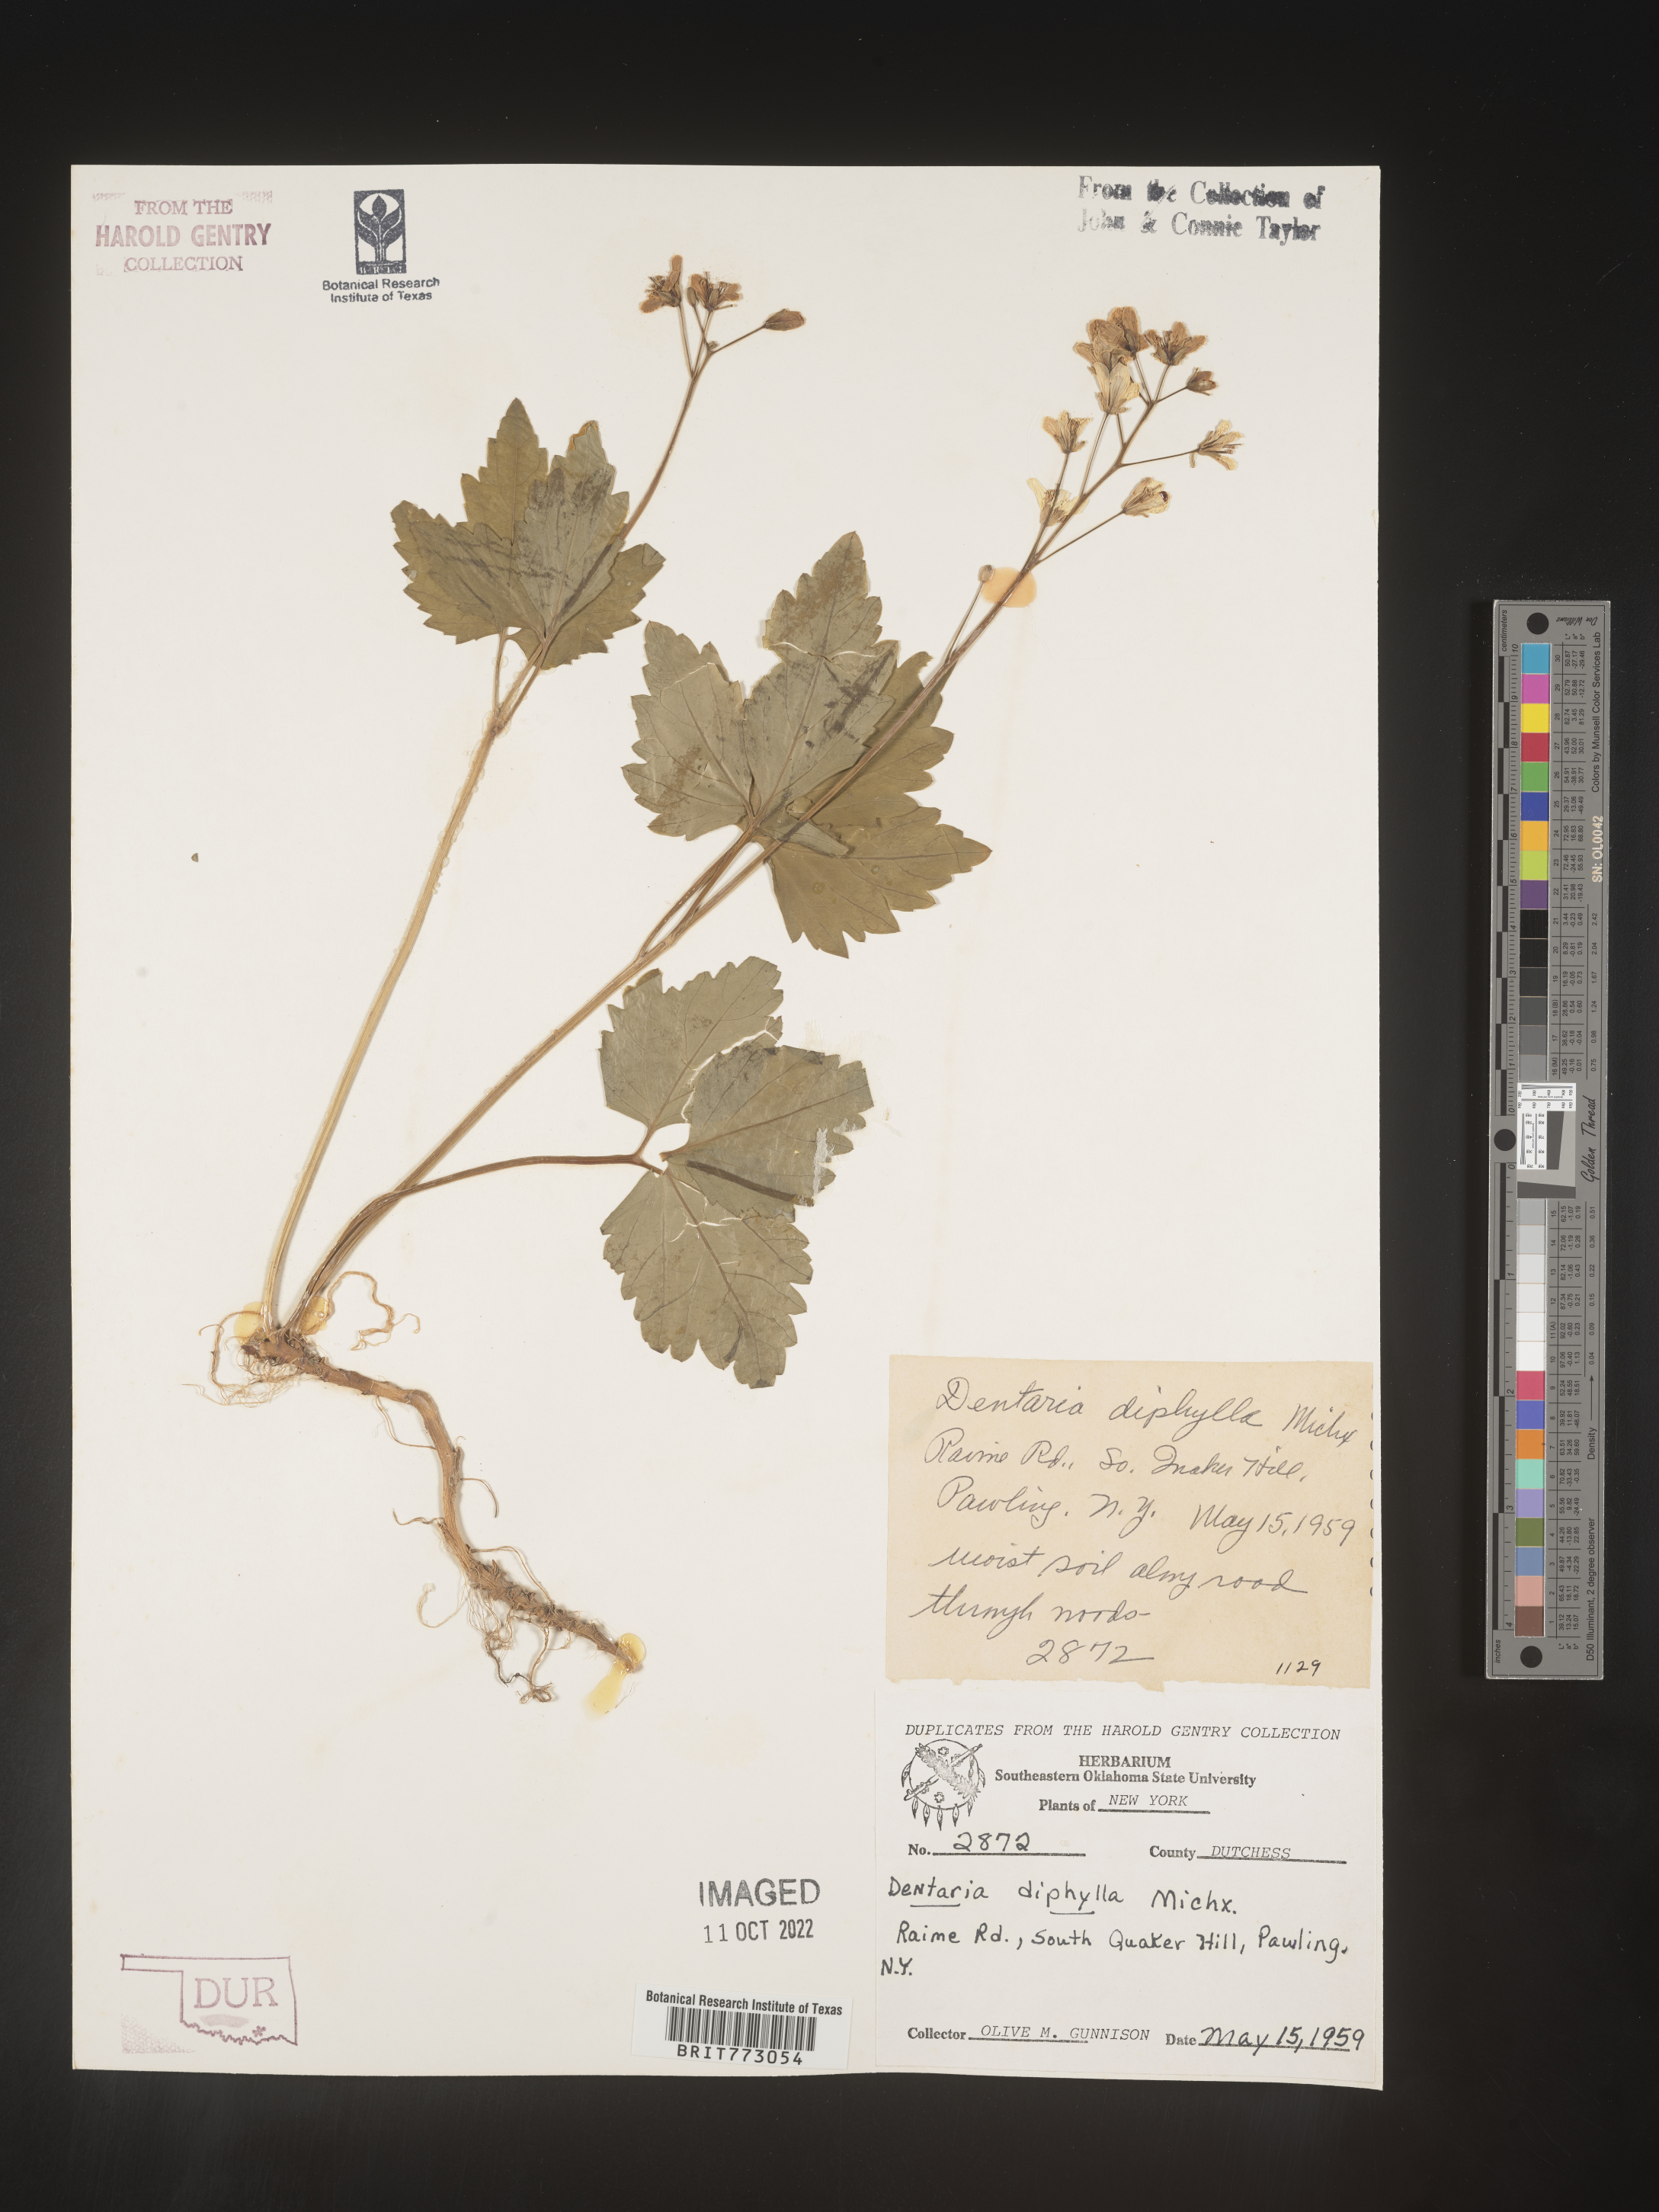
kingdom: Plantae
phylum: Tracheophyta
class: Magnoliopsida
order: Brassicales
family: Brassicaceae
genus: Cardamine
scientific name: Cardamine diphylla
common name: Broad-leaved toothwort
